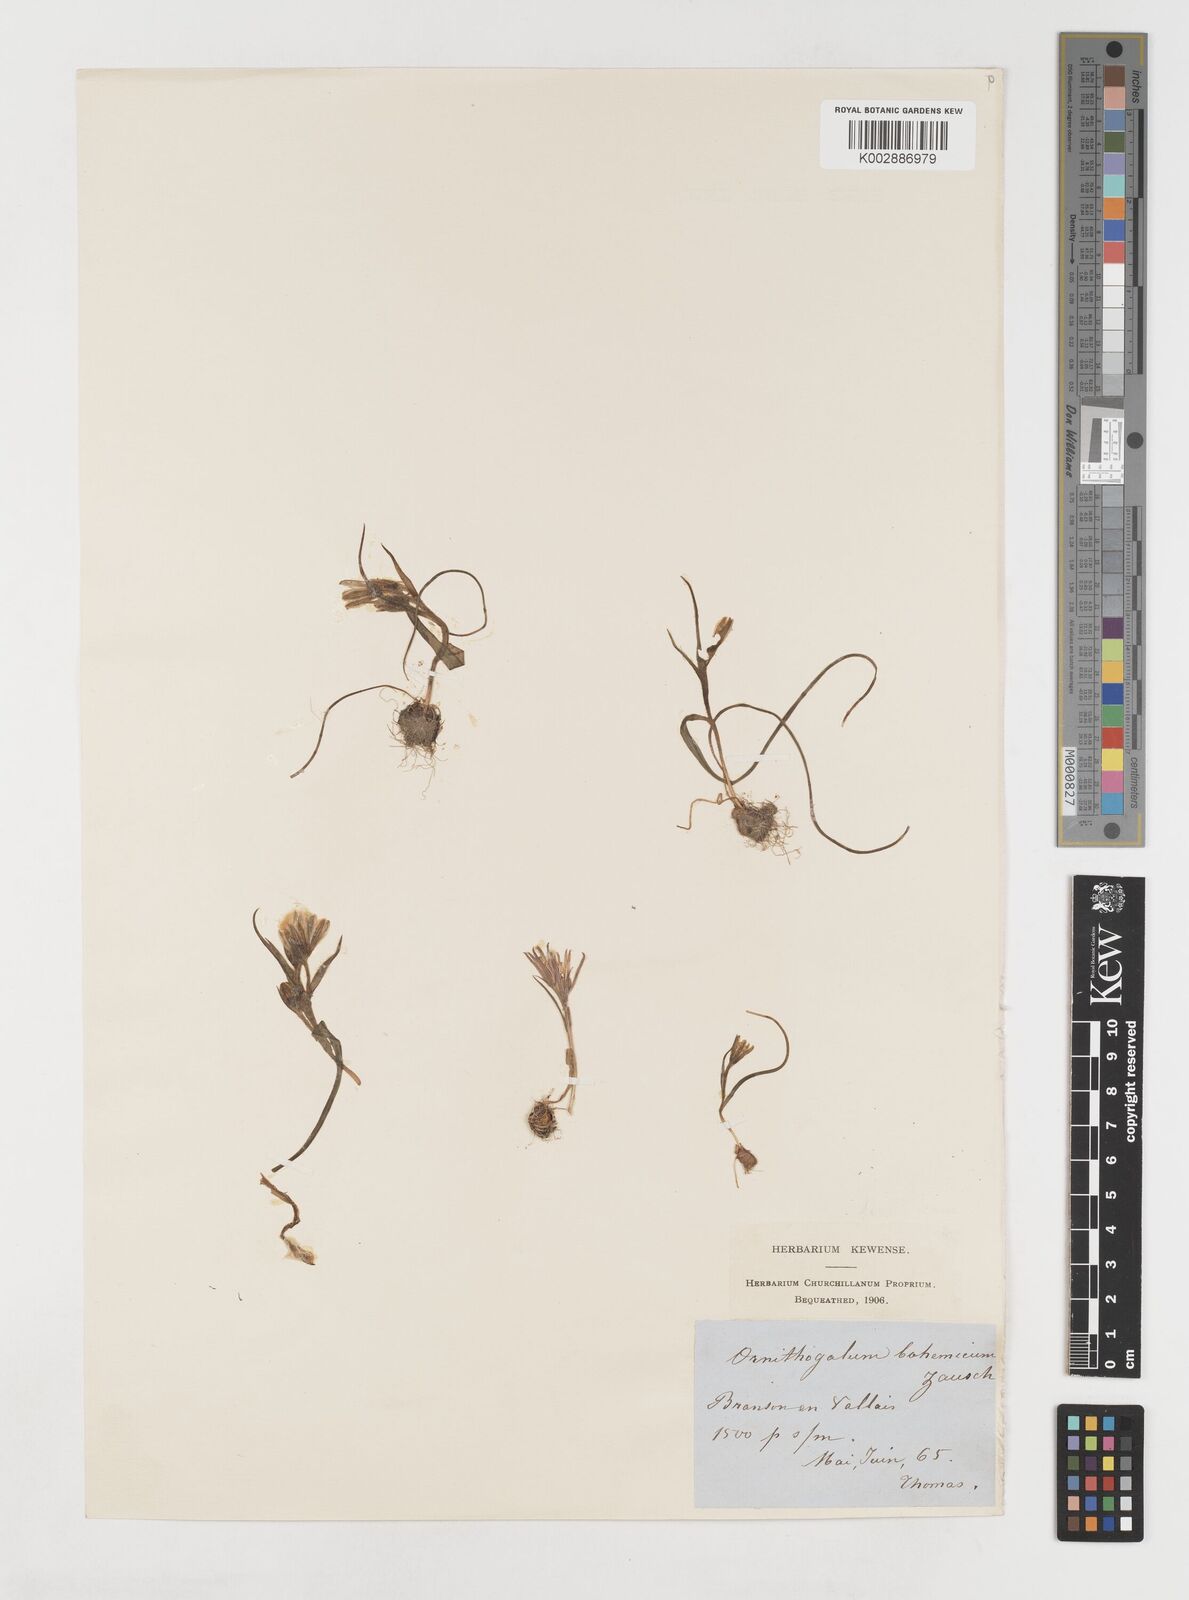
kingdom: Plantae
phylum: Tracheophyta
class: Liliopsida
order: Liliales
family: Liliaceae
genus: Gagea
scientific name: Gagea bohemica
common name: Early star-of-bethlehem
